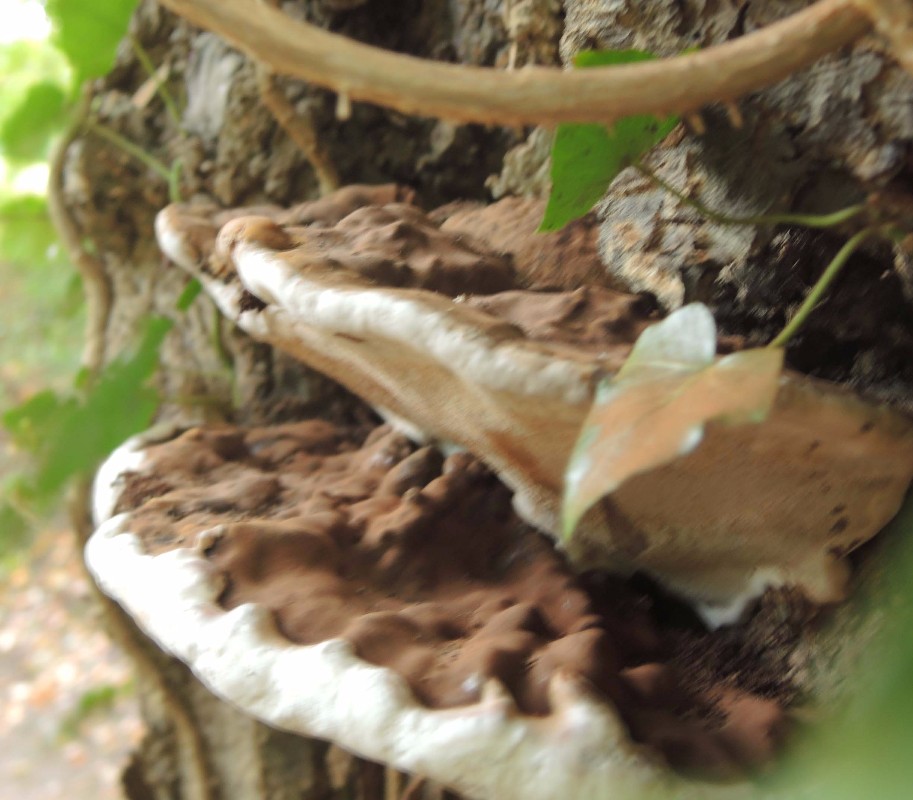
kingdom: Fungi
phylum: Basidiomycota
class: Agaricomycetes
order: Polyporales
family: Polyporaceae
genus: Ganoderma
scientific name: Ganoderma adspersum
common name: grov lakporesvamp
